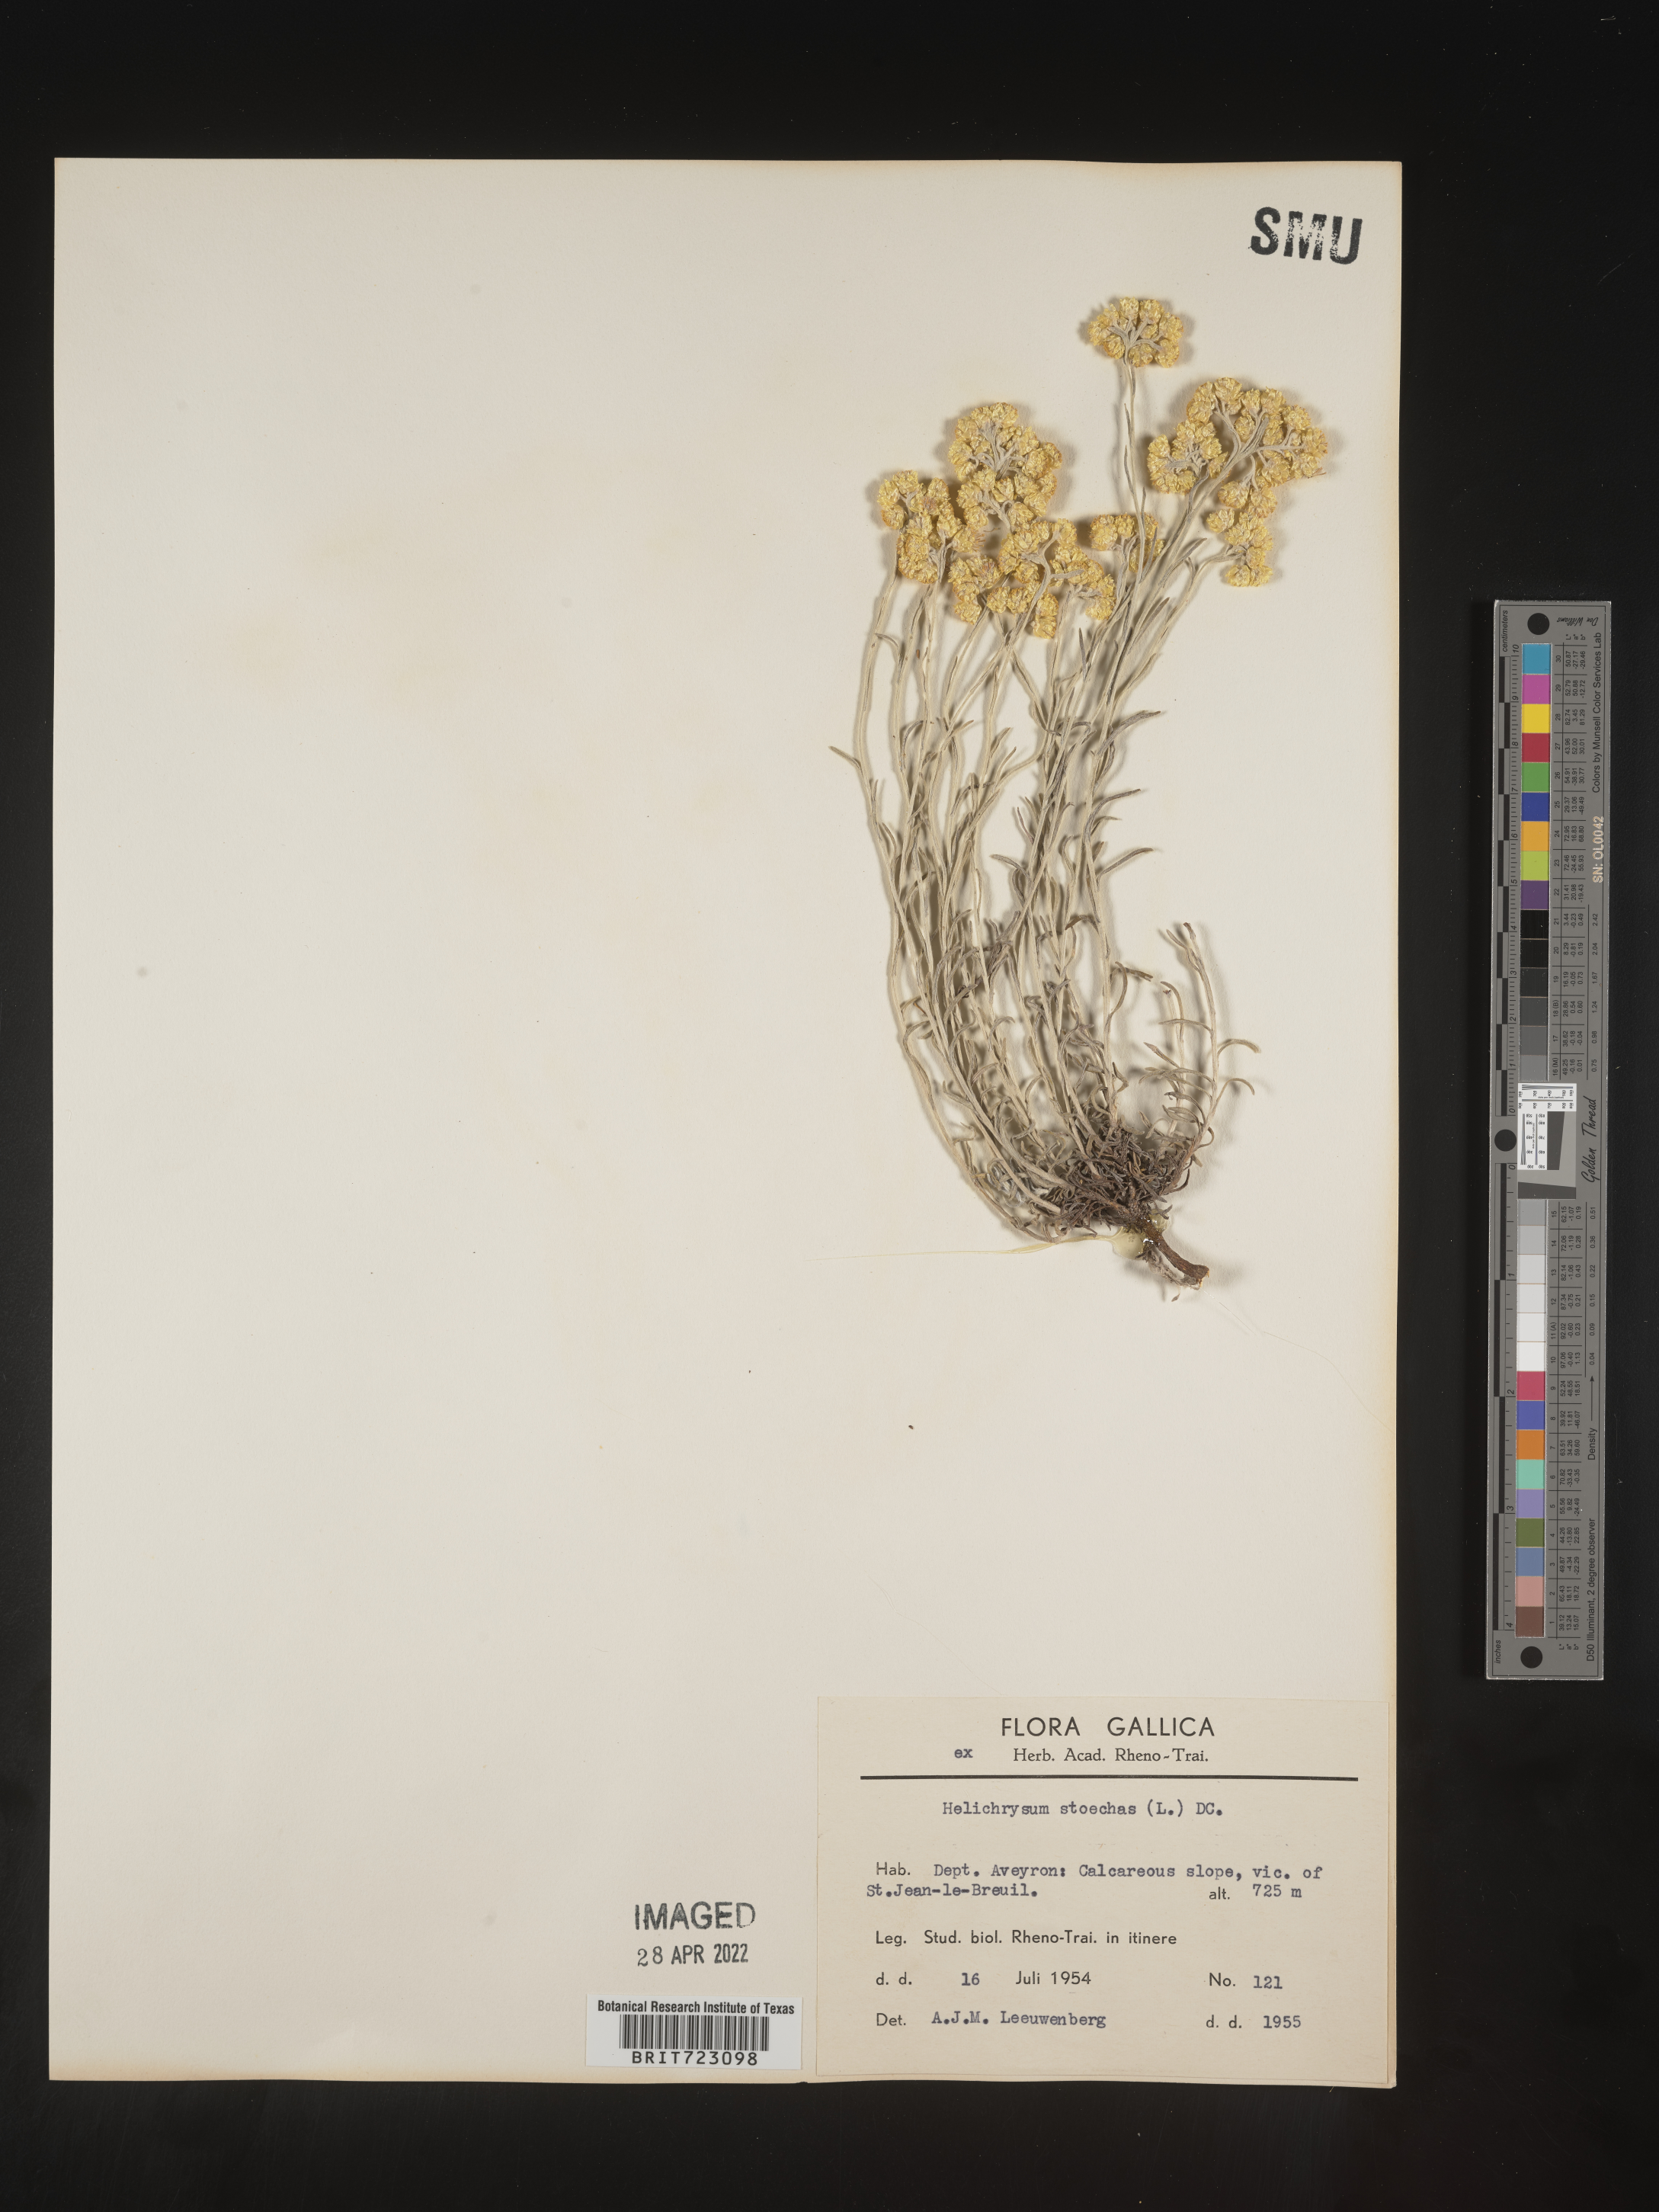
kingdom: Plantae
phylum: Tracheophyta
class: Magnoliopsida
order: Asterales
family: Asteraceae
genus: Helichrysum
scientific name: Helichrysum stoechas
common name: Goldilocks
